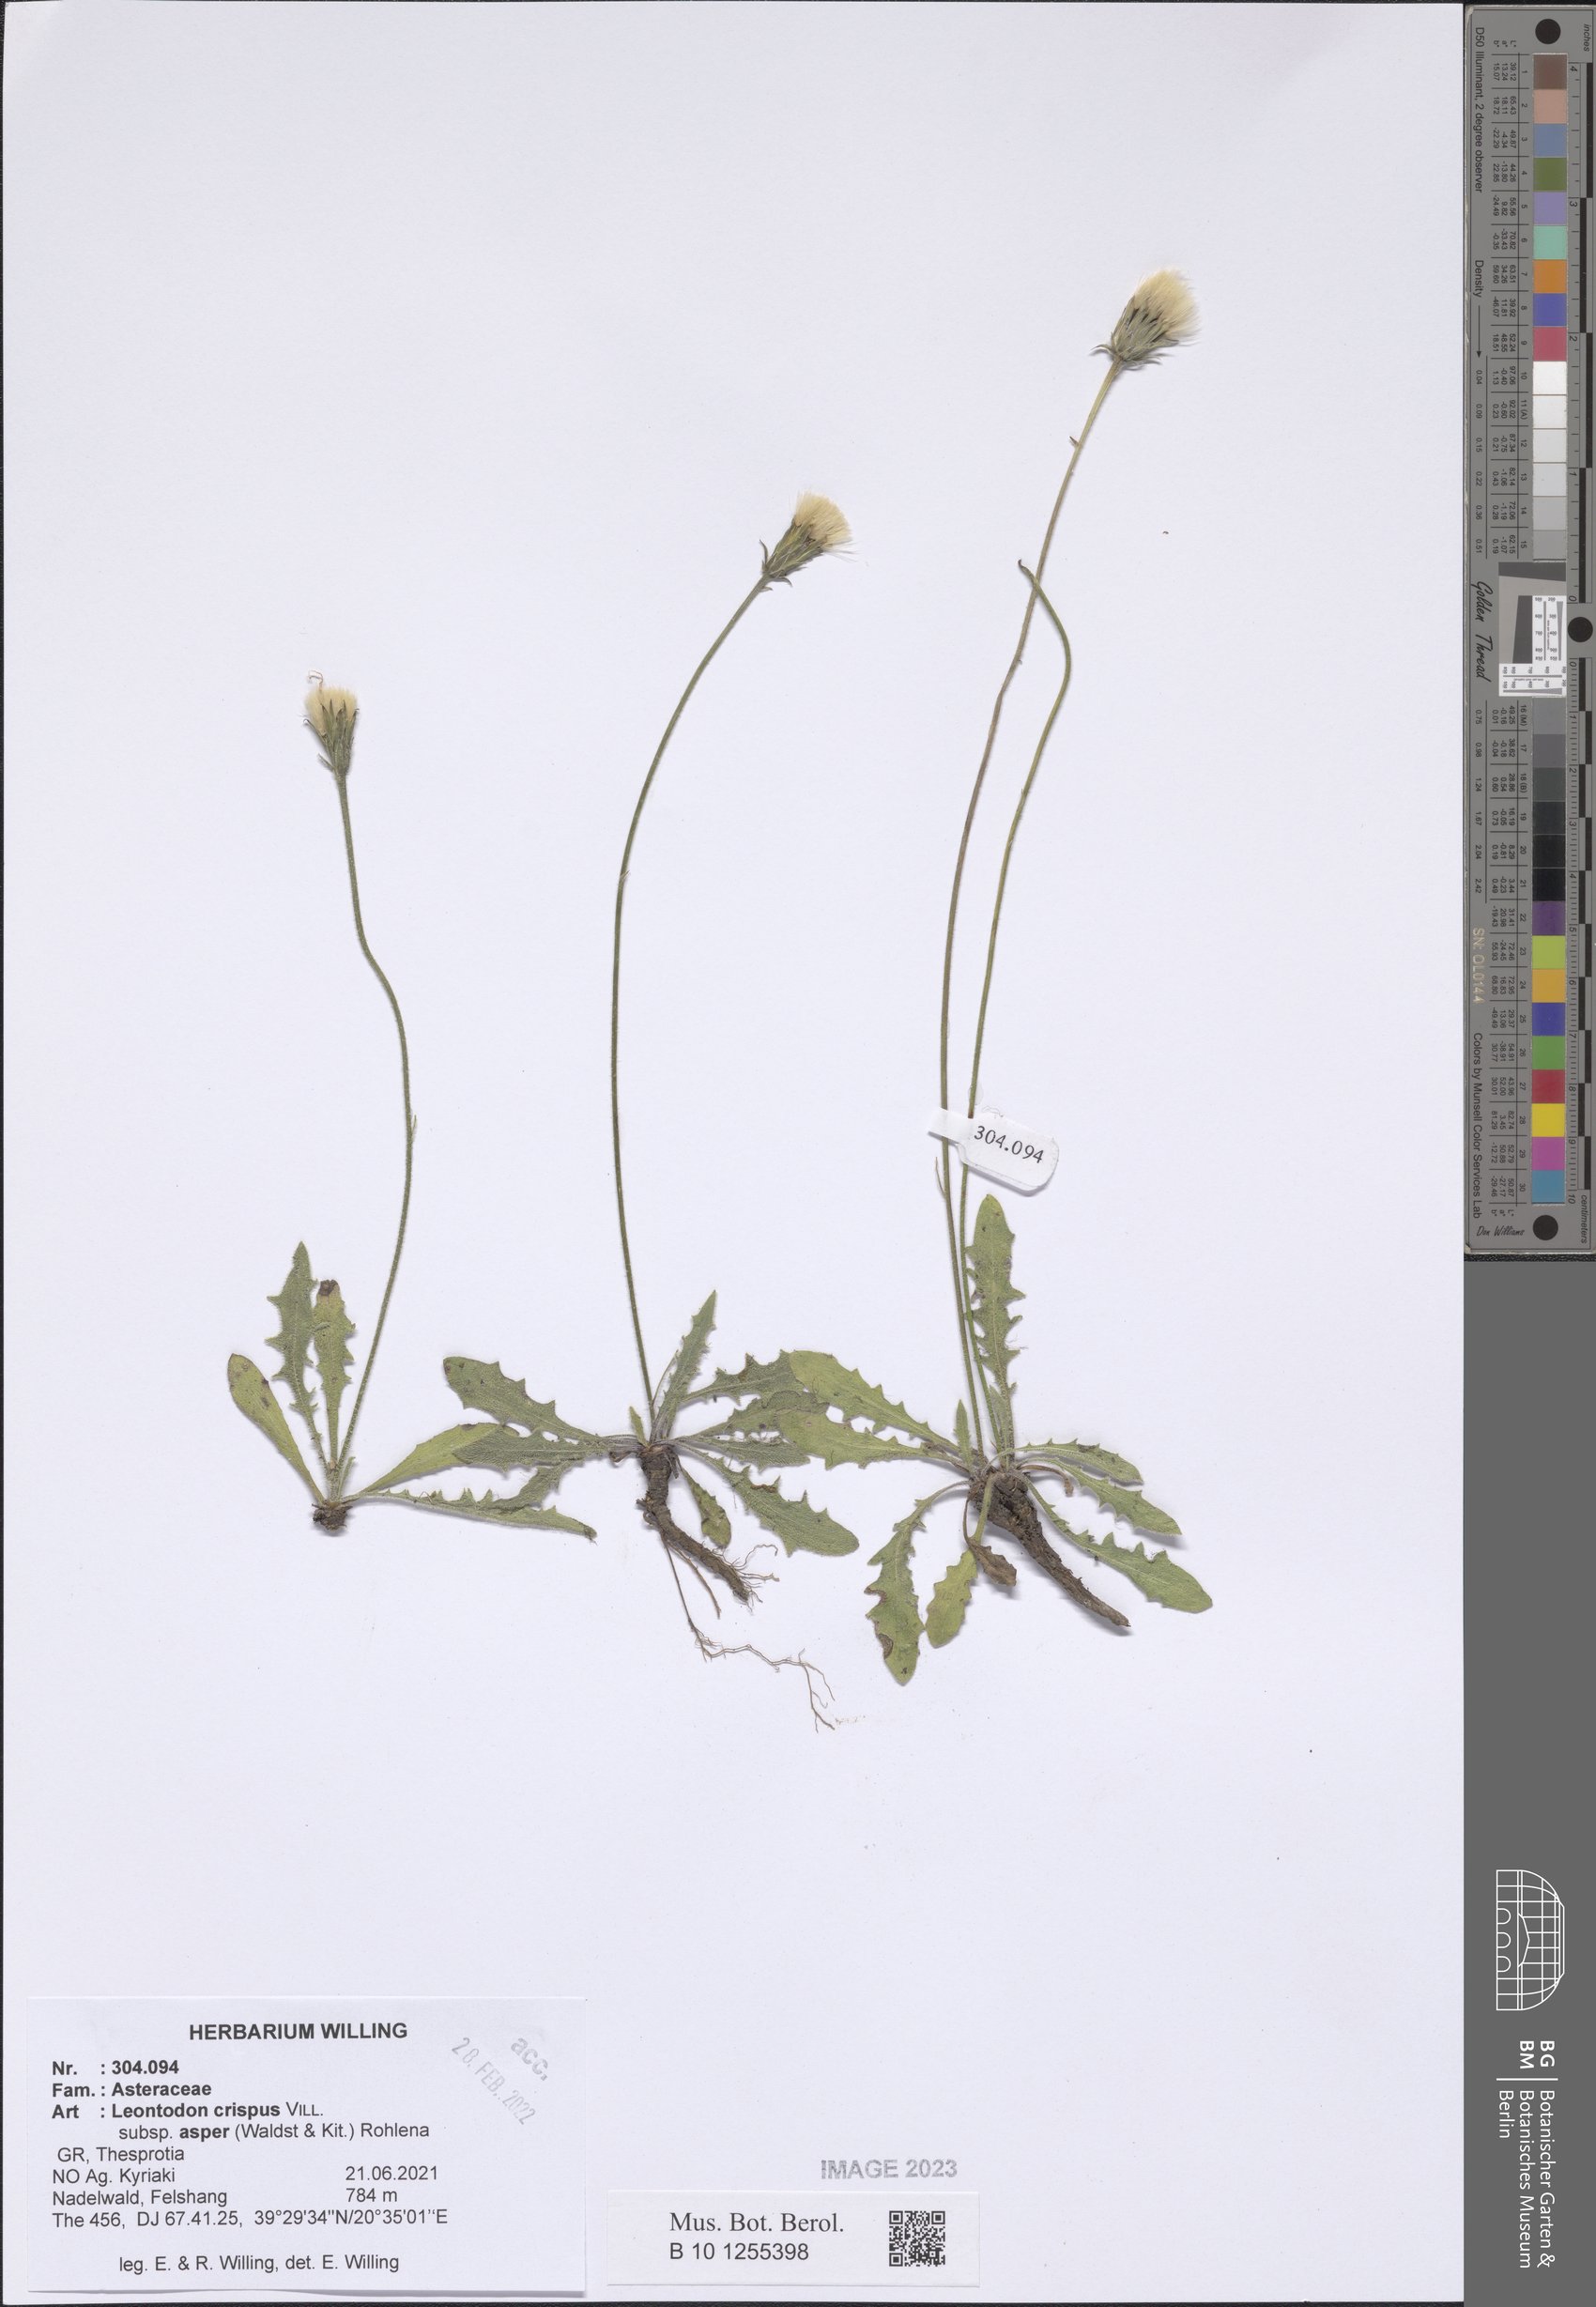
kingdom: Plantae
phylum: Tracheophyta
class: Magnoliopsida
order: Asterales
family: Asteraceae
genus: Leontodon
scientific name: Leontodon biscutellifolius
